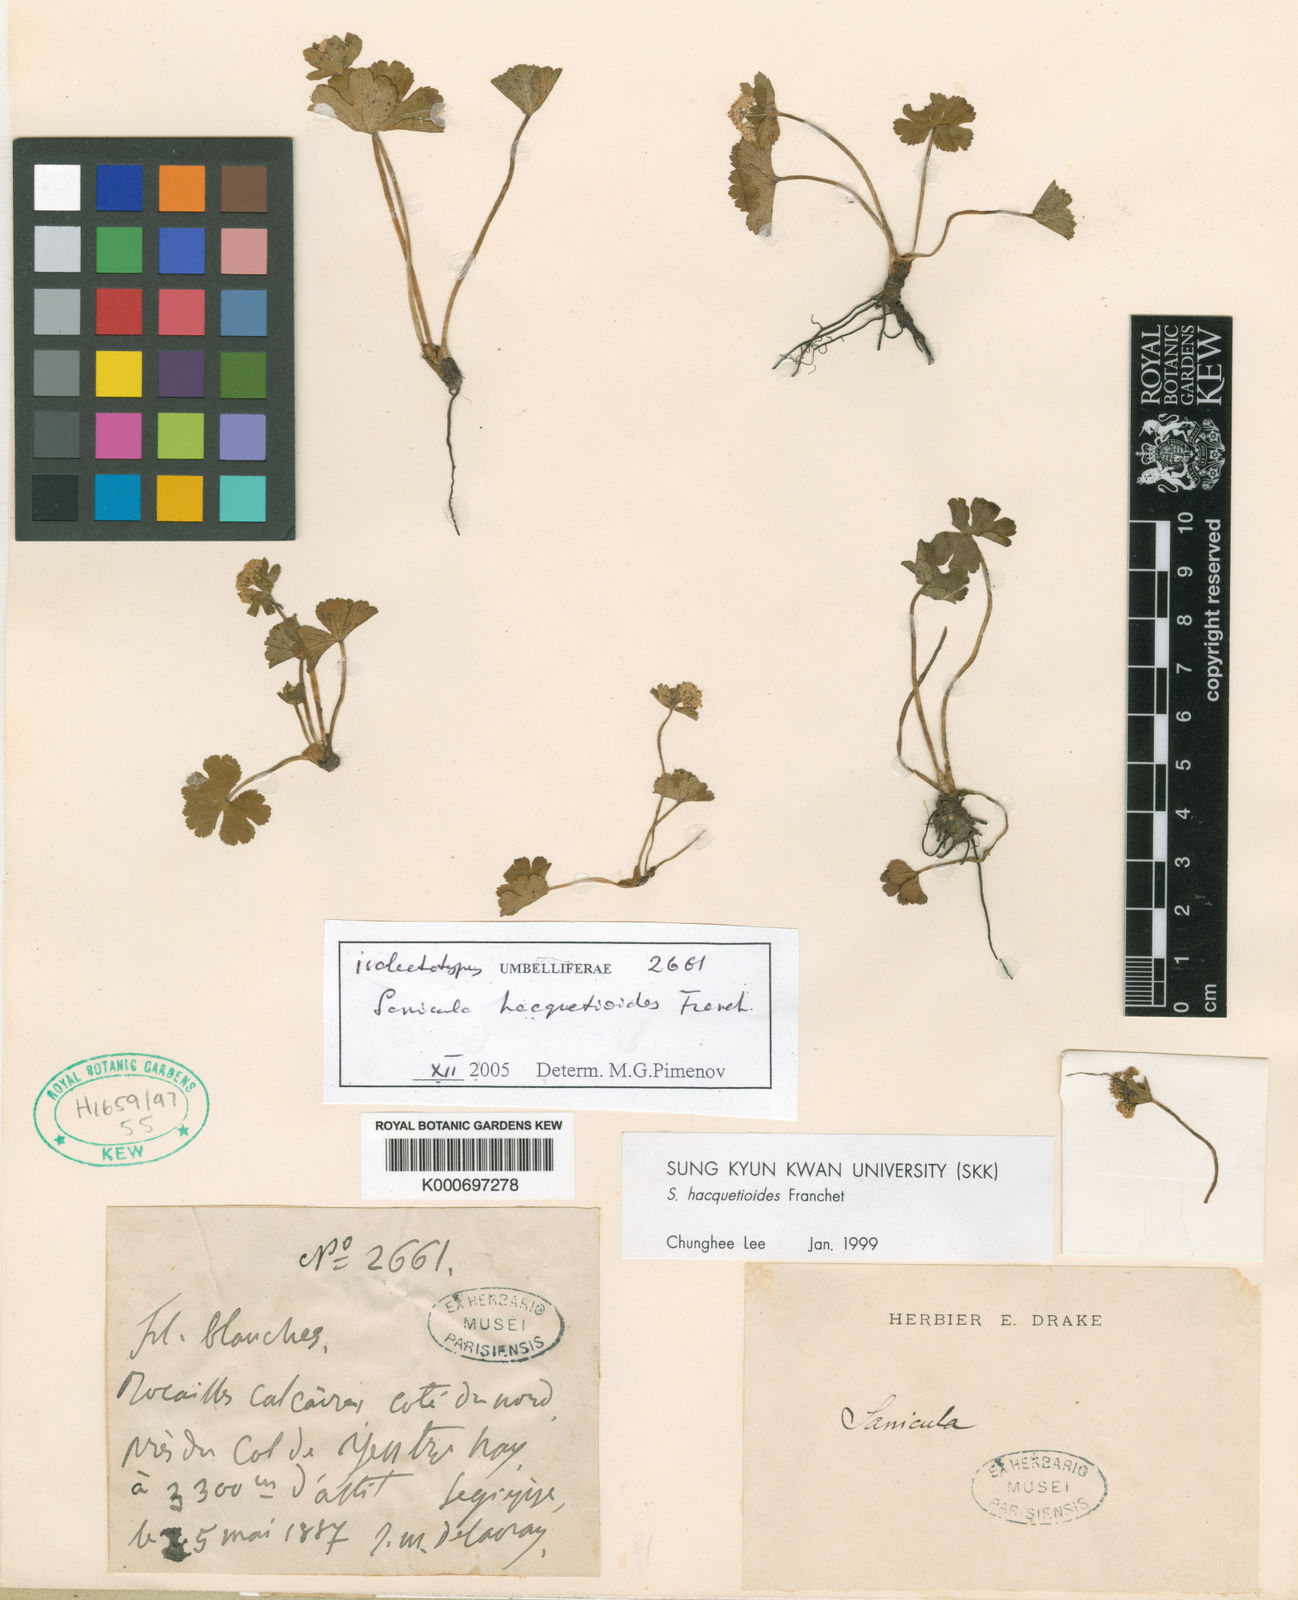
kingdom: Plantae
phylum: Tracheophyta
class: Magnoliopsida
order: Apiales
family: Apiaceae
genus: Sanicula
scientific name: Sanicula hacquetioides
